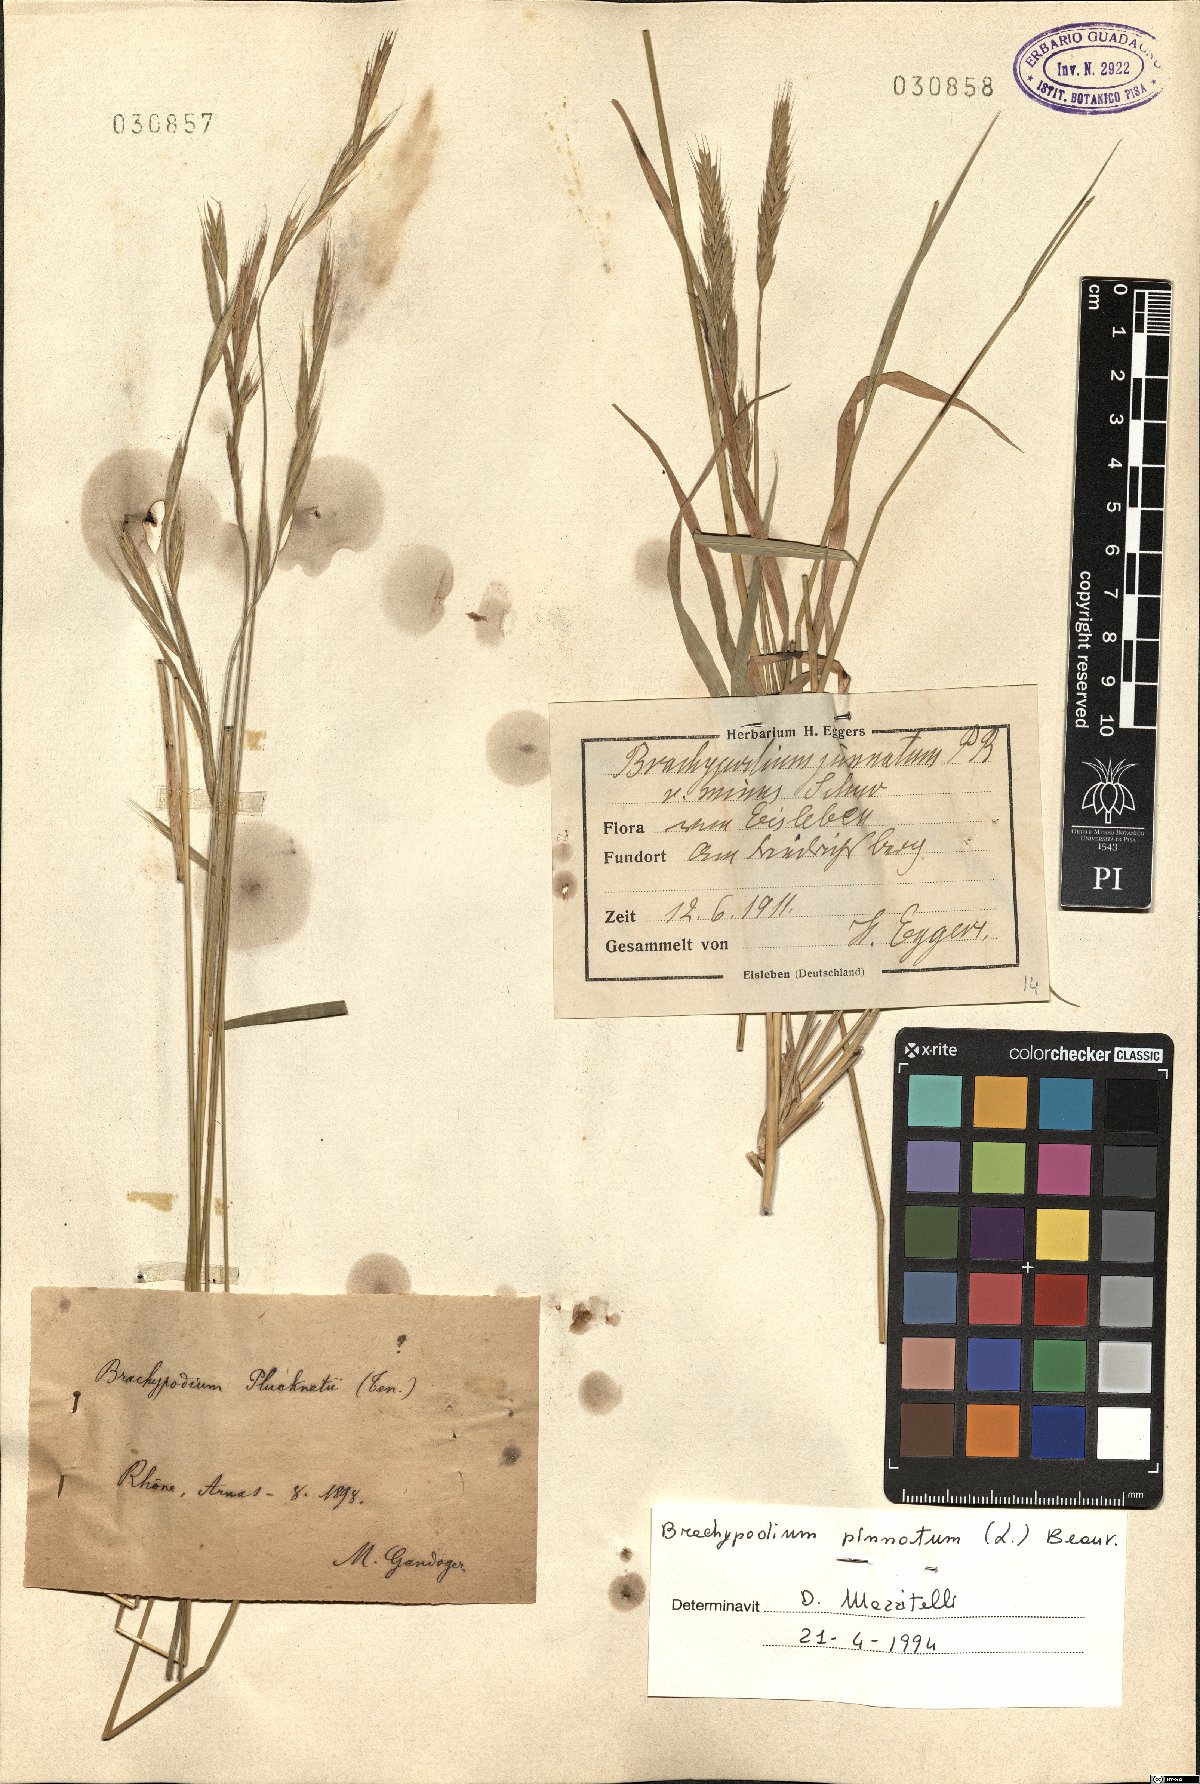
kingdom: Plantae
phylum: Tracheophyta
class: Liliopsida
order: Poales
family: Poaceae
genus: Brachypodium
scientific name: Brachypodium pinnatum
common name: Tor grass
